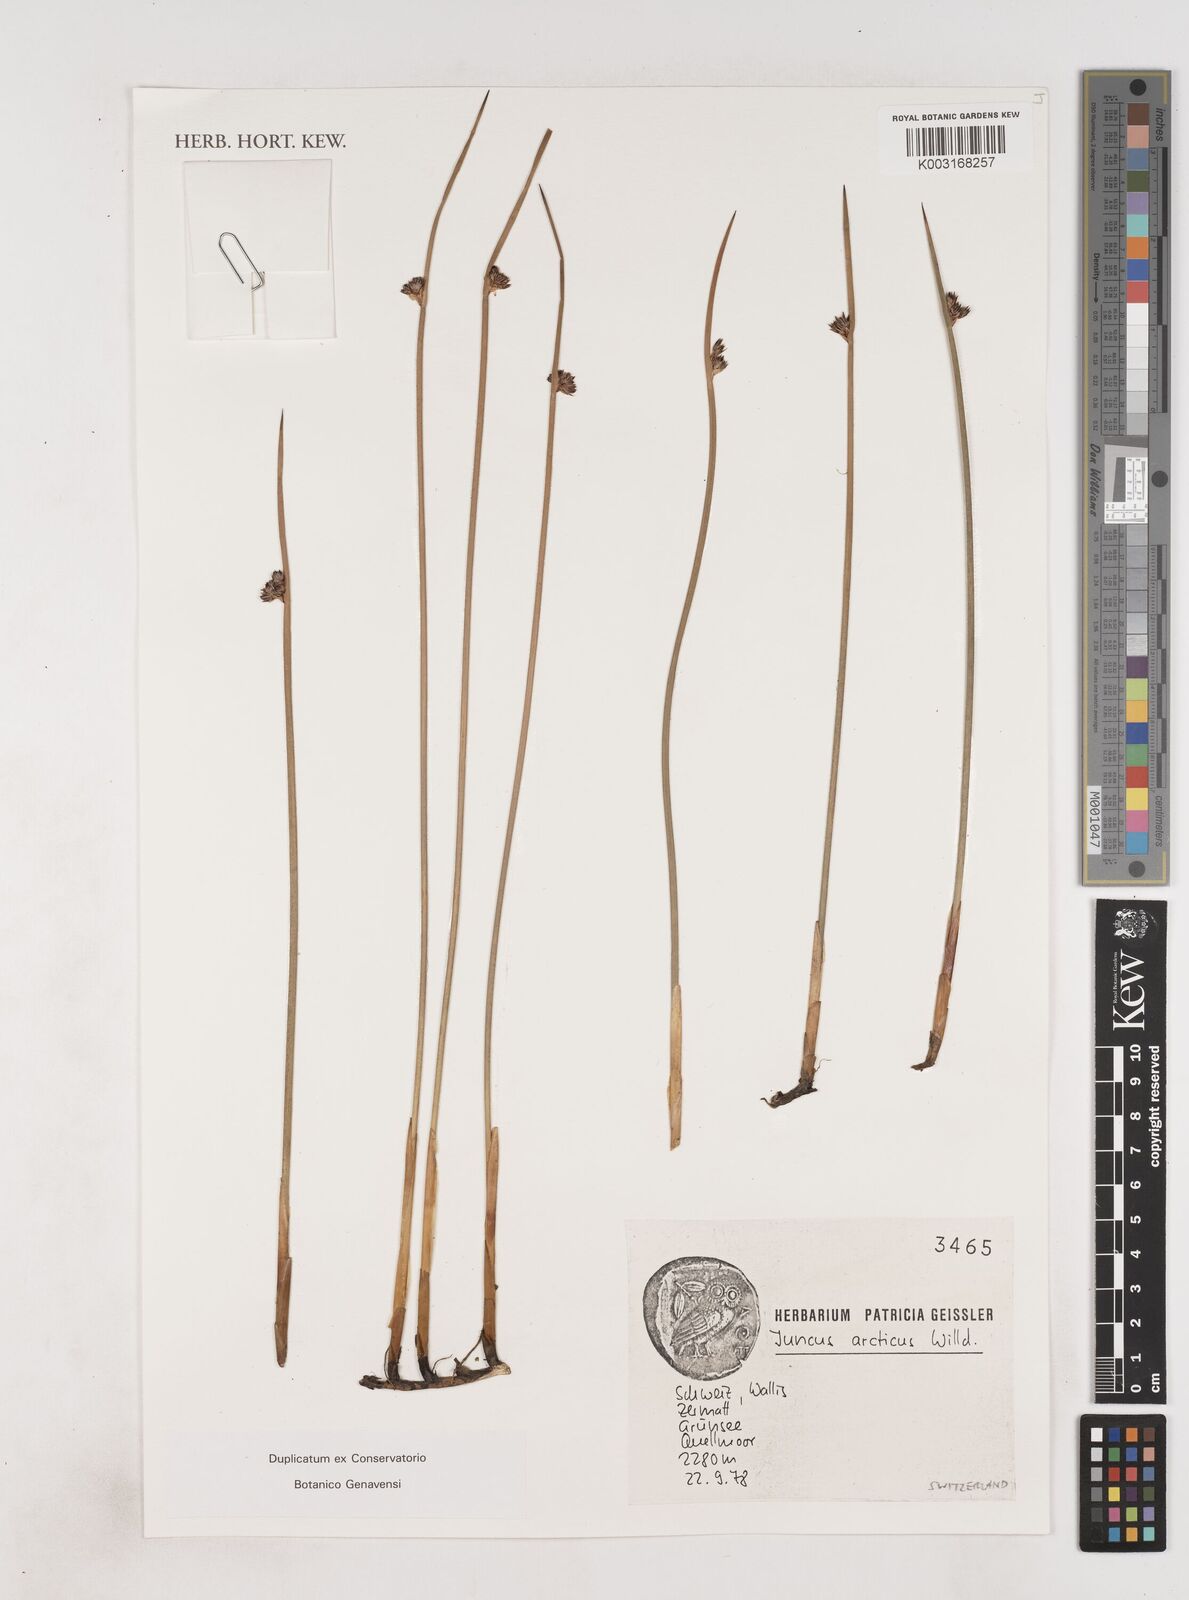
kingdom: Plantae
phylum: Tracheophyta
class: Liliopsida
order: Poales
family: Juncaceae
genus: Juncus
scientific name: Juncus arcticus
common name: Arctic rush
